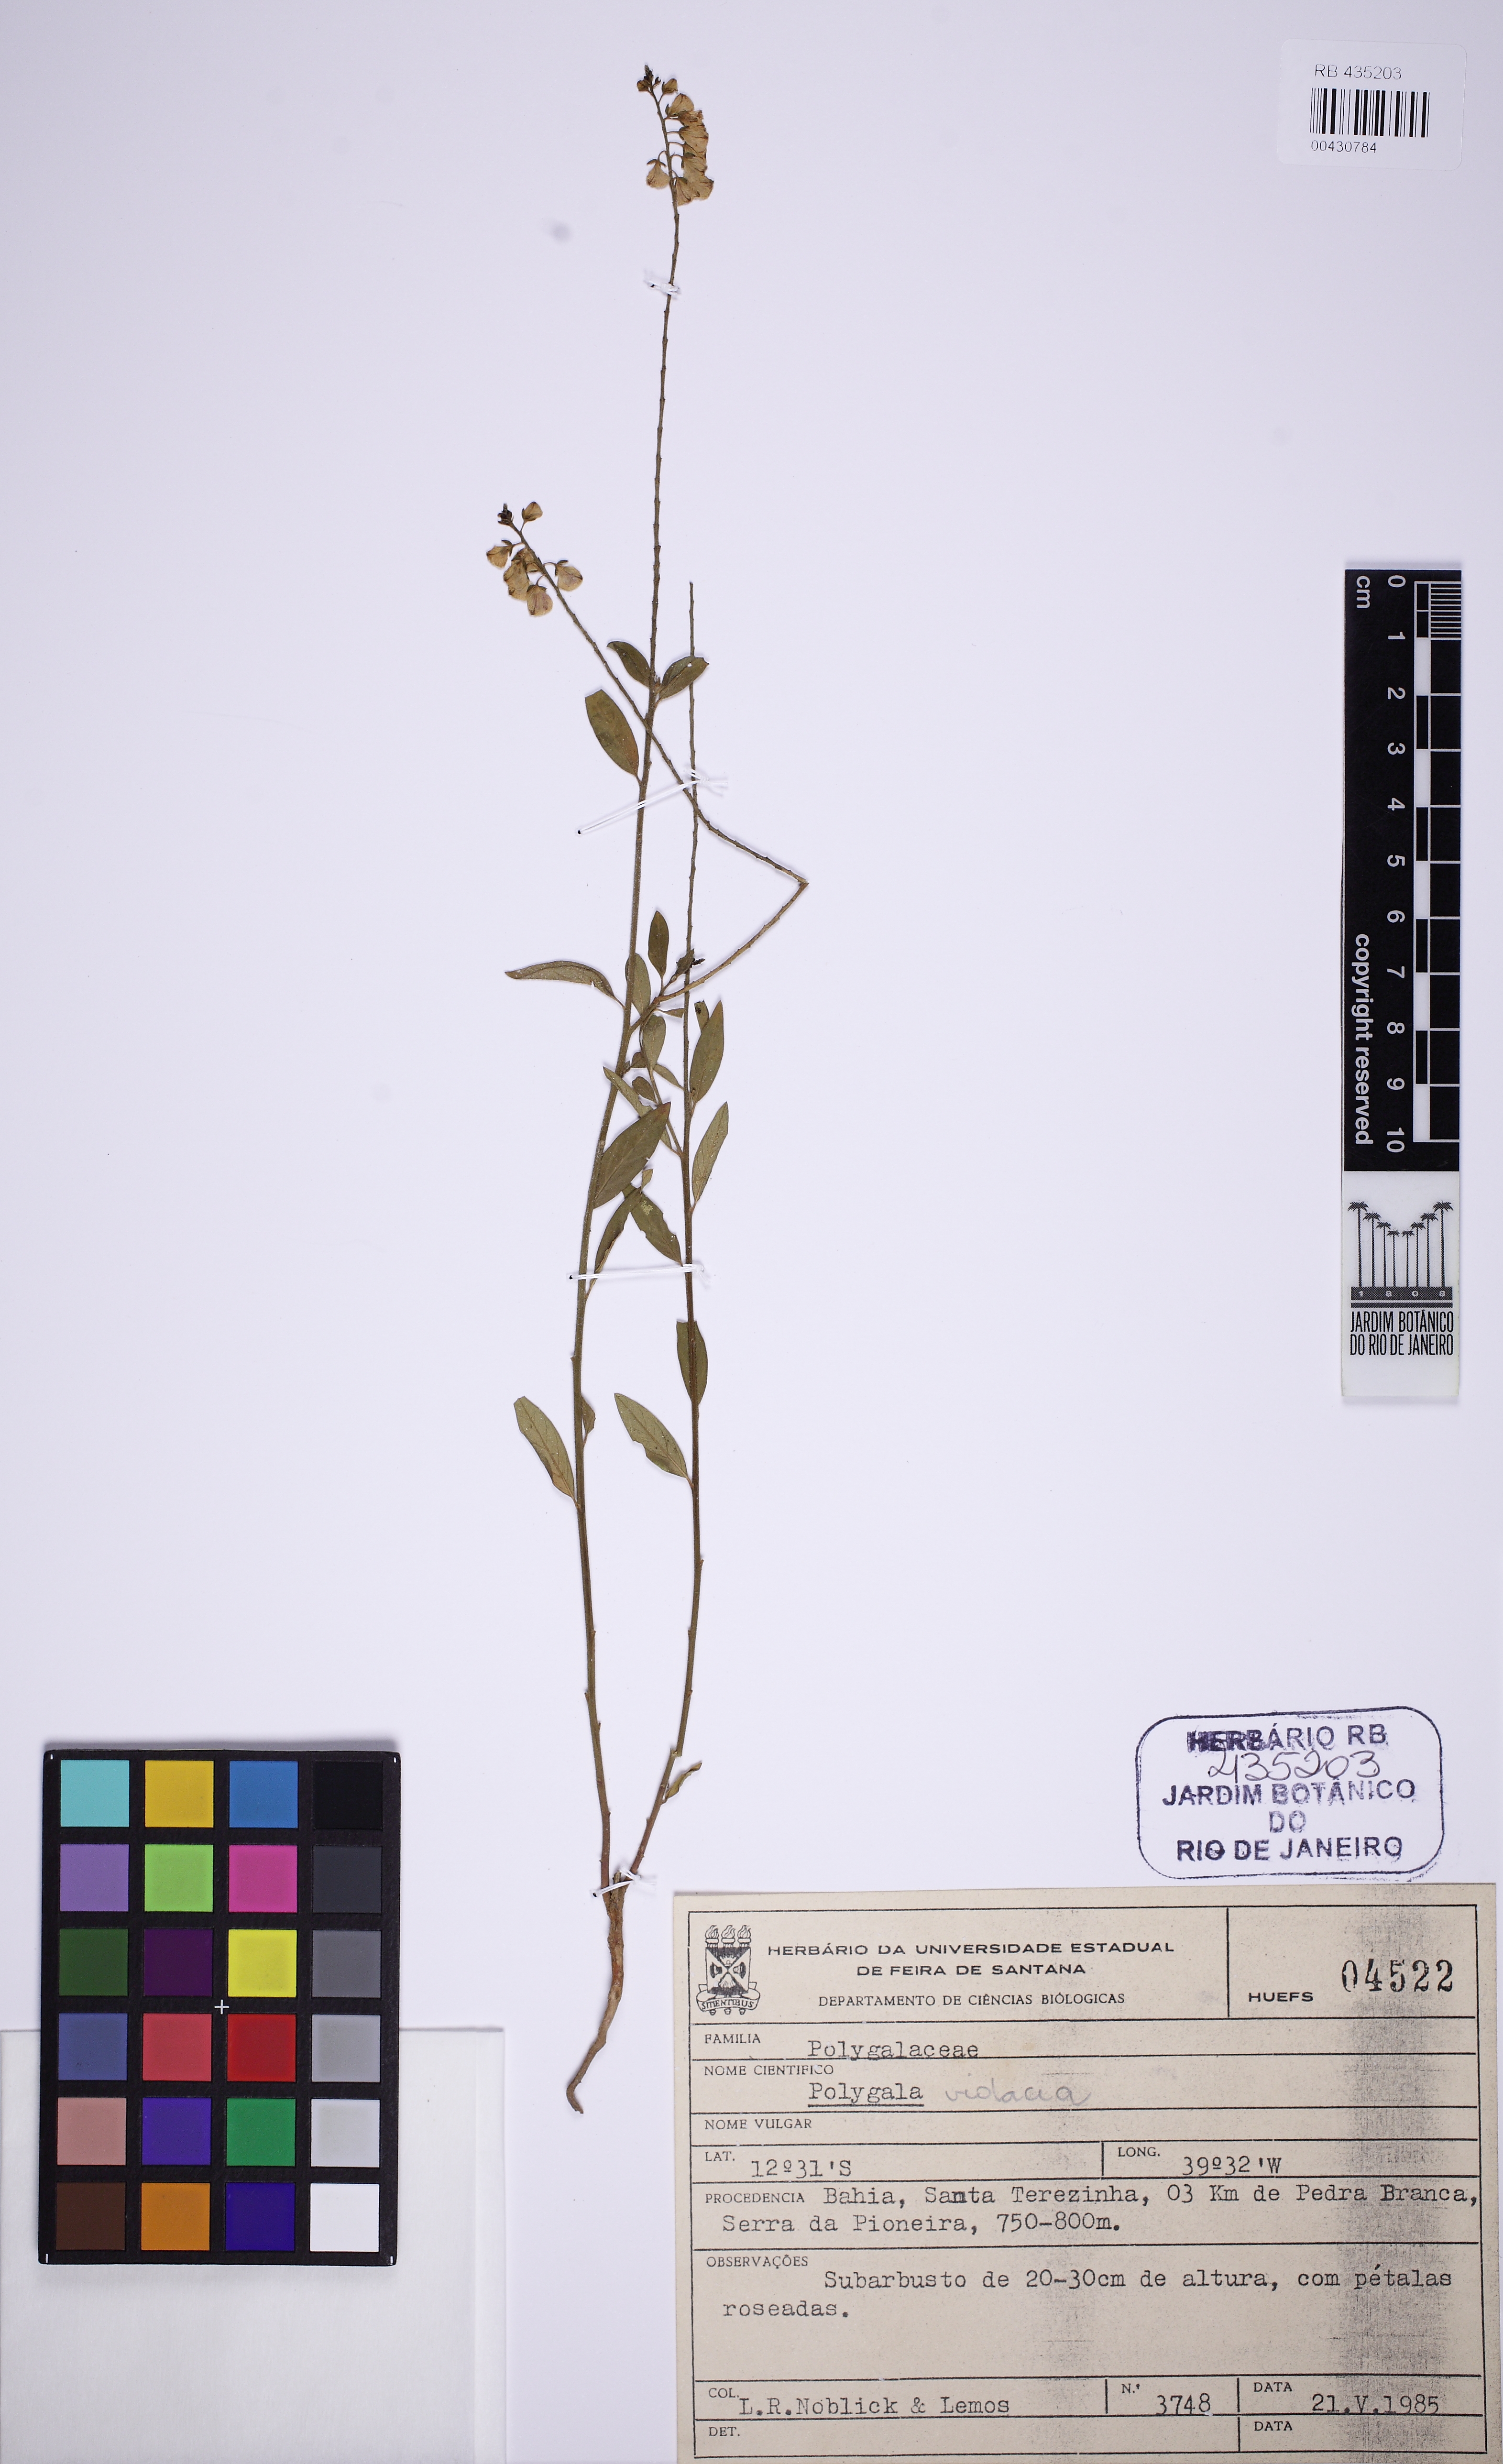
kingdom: Plantae
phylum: Tracheophyta
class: Magnoliopsida
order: Fabales
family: Polygalaceae
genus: Asemeia
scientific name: Asemeia violacea
